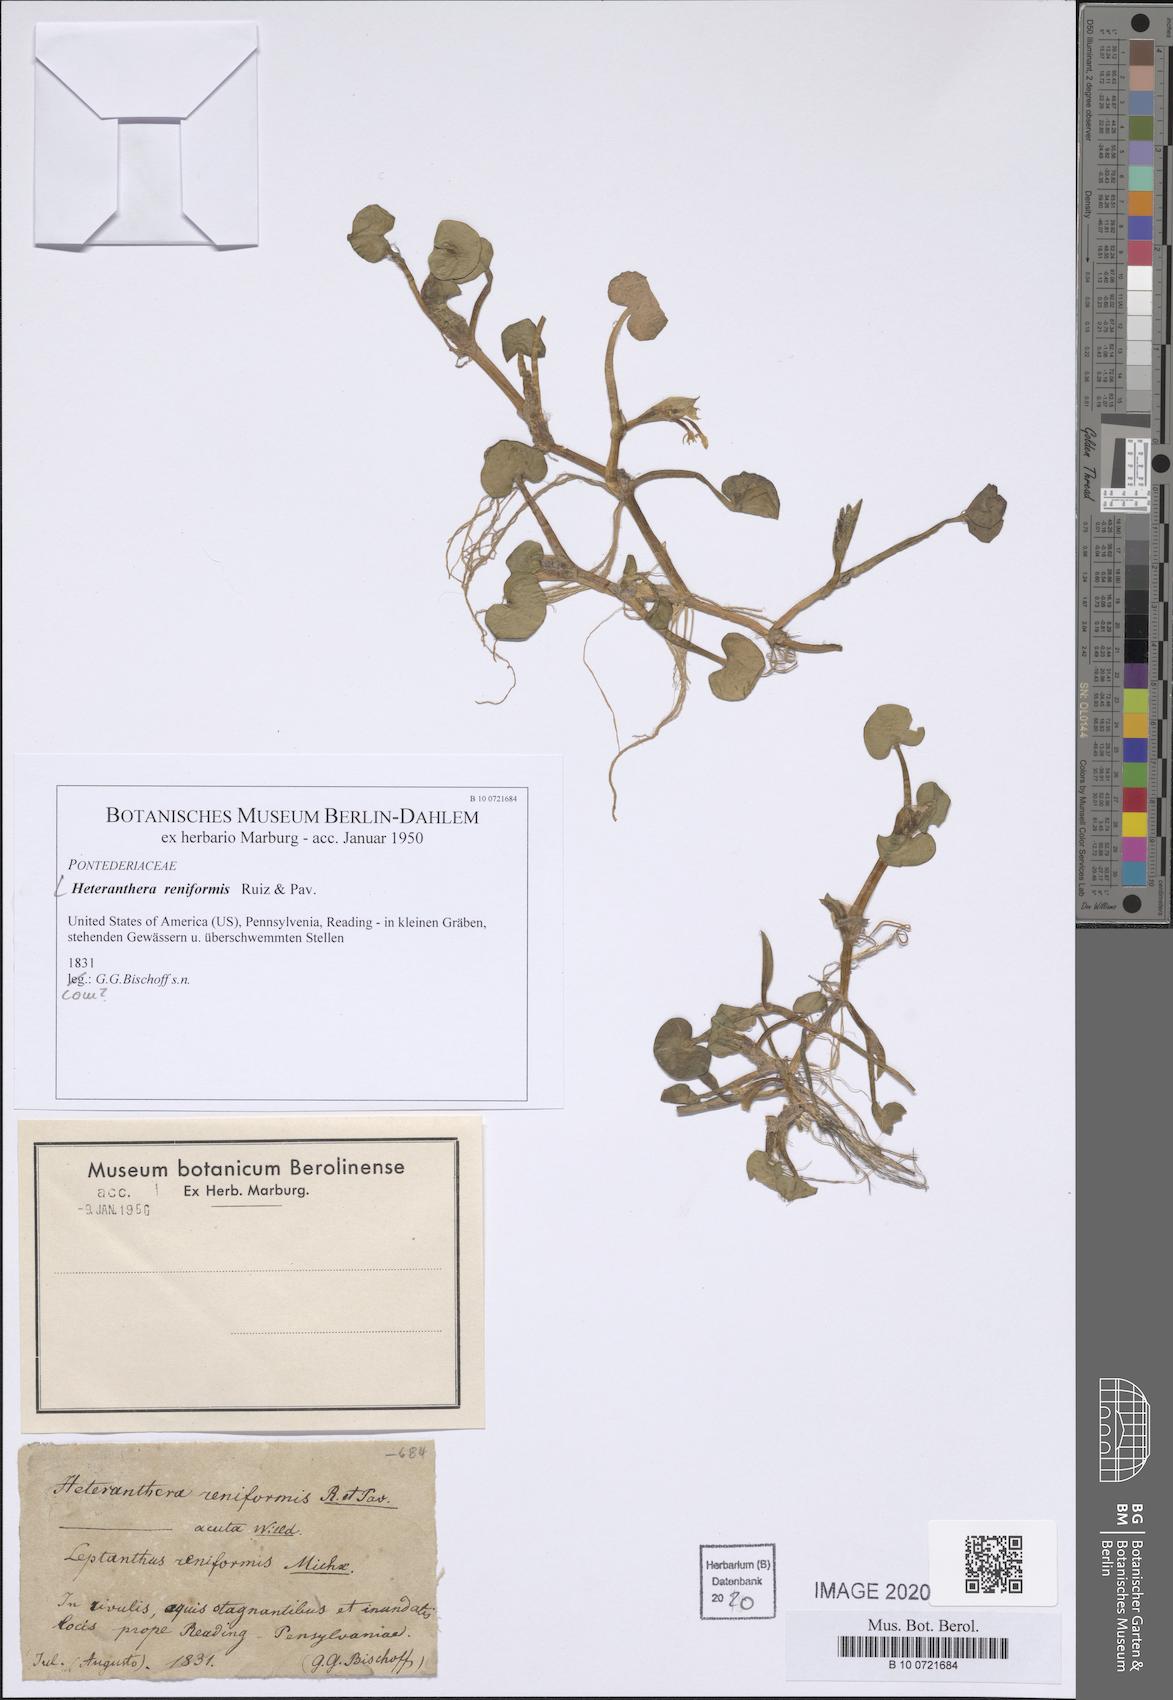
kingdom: Plantae
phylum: Tracheophyta
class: Liliopsida
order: Commelinales
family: Pontederiaceae
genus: Heteranthera
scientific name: Heteranthera reniformis
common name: Kidneyleaf mudplantain
